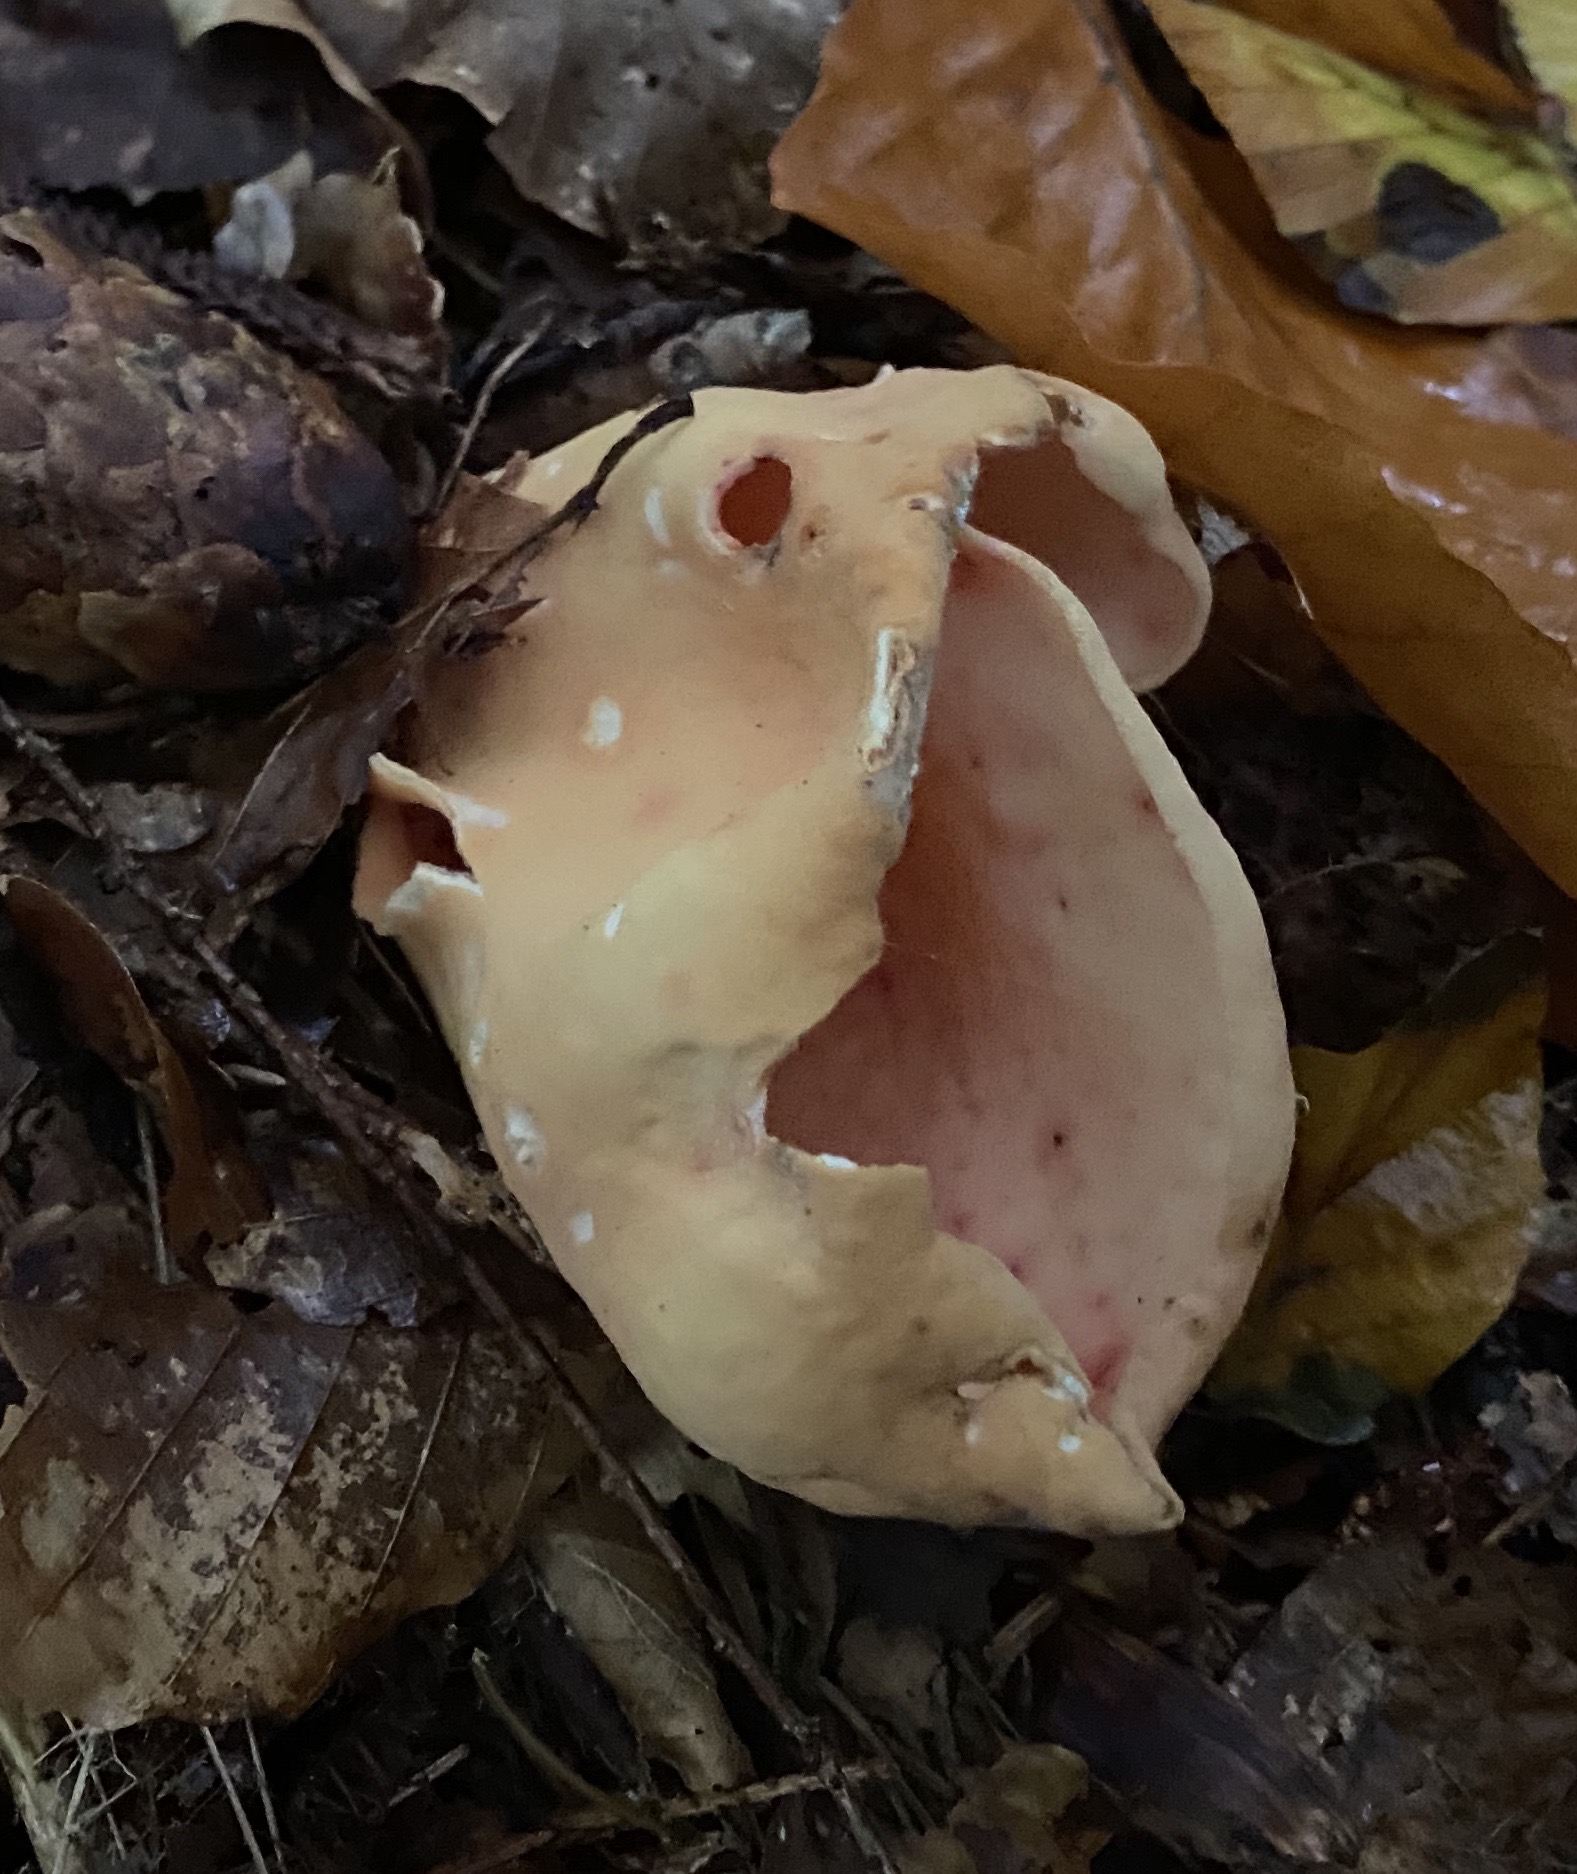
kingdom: Fungi
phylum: Ascomycota
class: Pezizomycetes
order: Pezizales
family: Otideaceae
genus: Otidea
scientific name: Otidea onotica
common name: æsel-ørebæger
